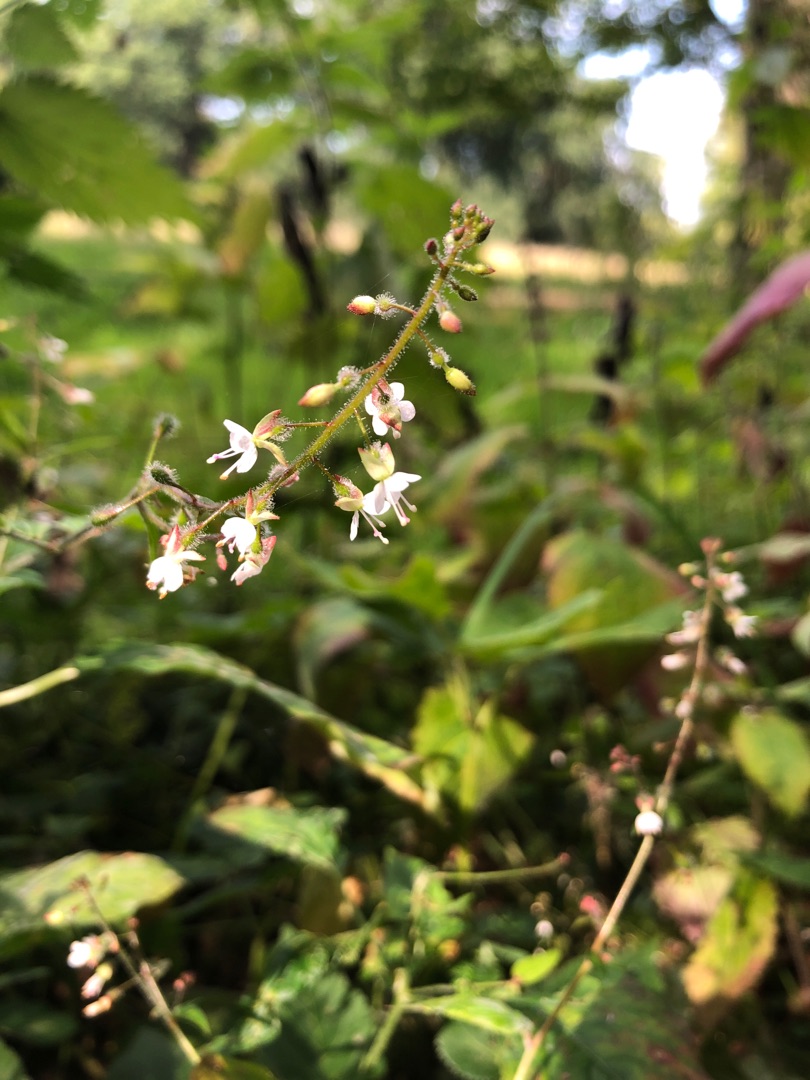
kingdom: Plantae
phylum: Tracheophyta
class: Magnoliopsida
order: Myrtales
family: Onagraceae
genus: Circaea
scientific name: Circaea lutetiana
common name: Dunet steffensurt
